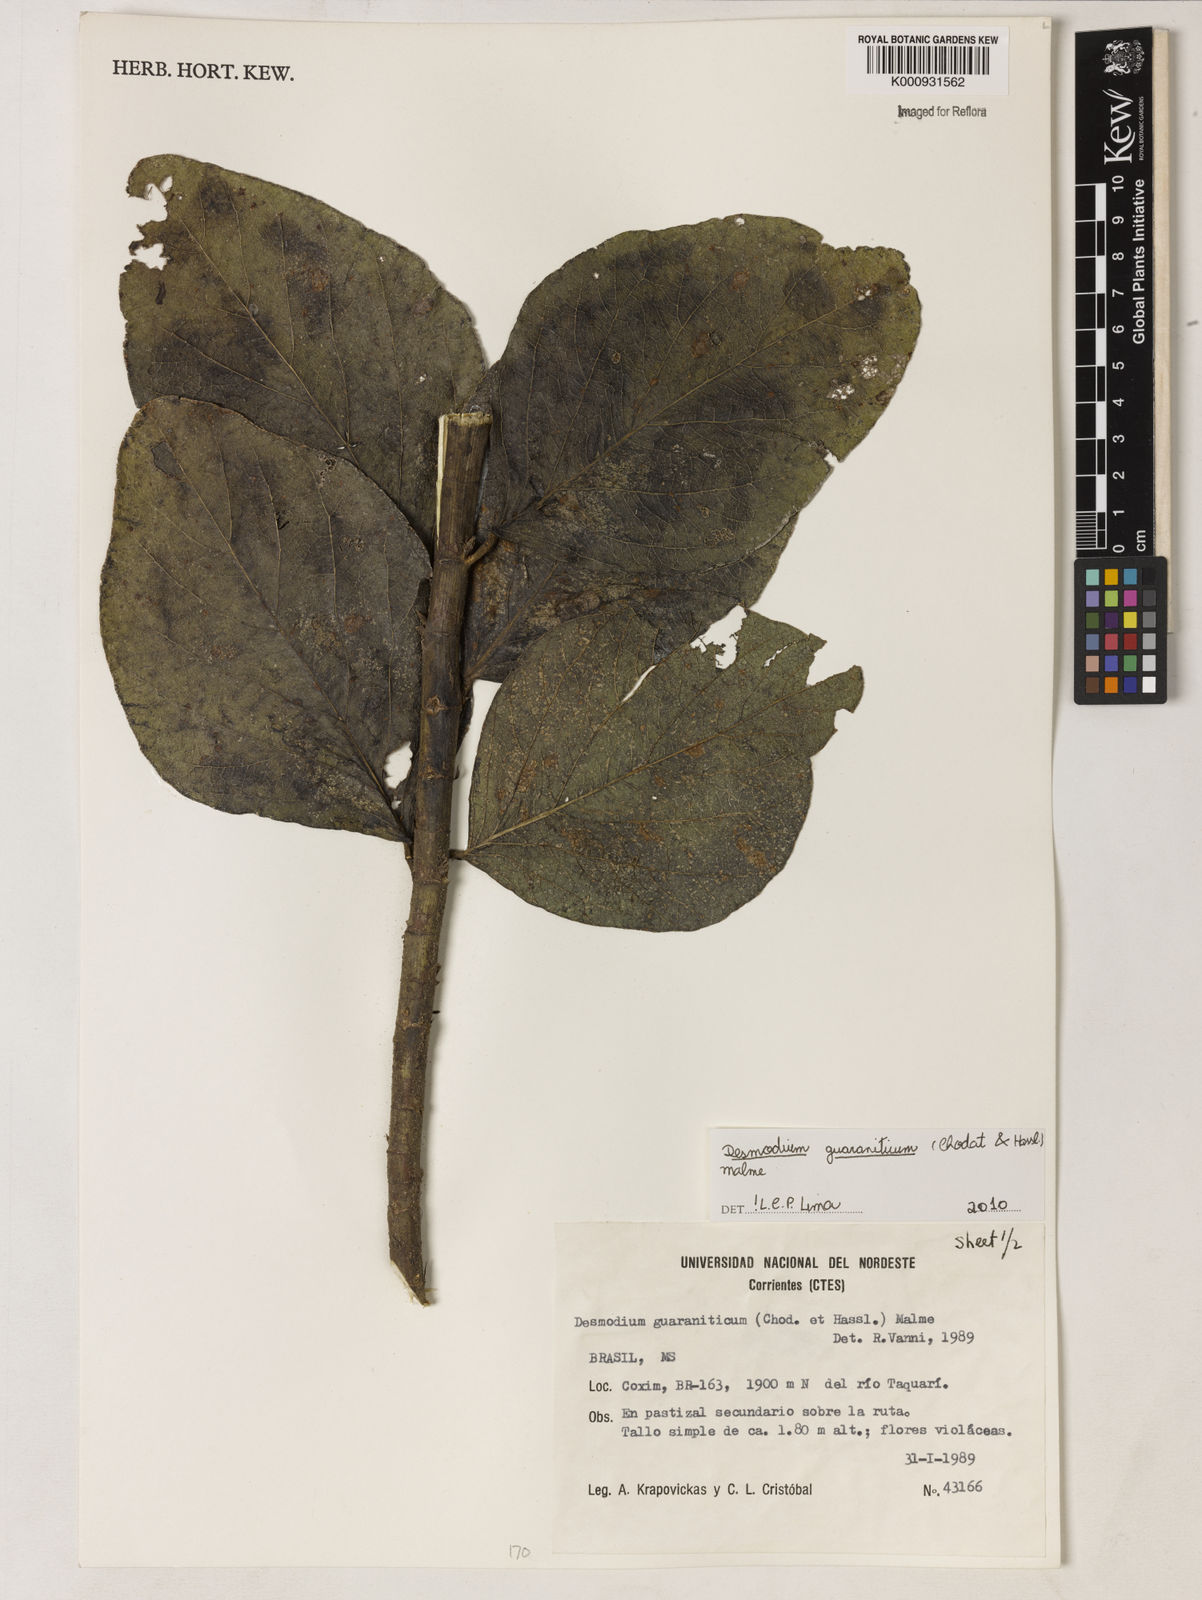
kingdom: Plantae
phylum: Tracheophyta
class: Magnoliopsida
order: Fabales
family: Fabaceae
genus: Desmodium
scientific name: Desmodium guaraniticum
